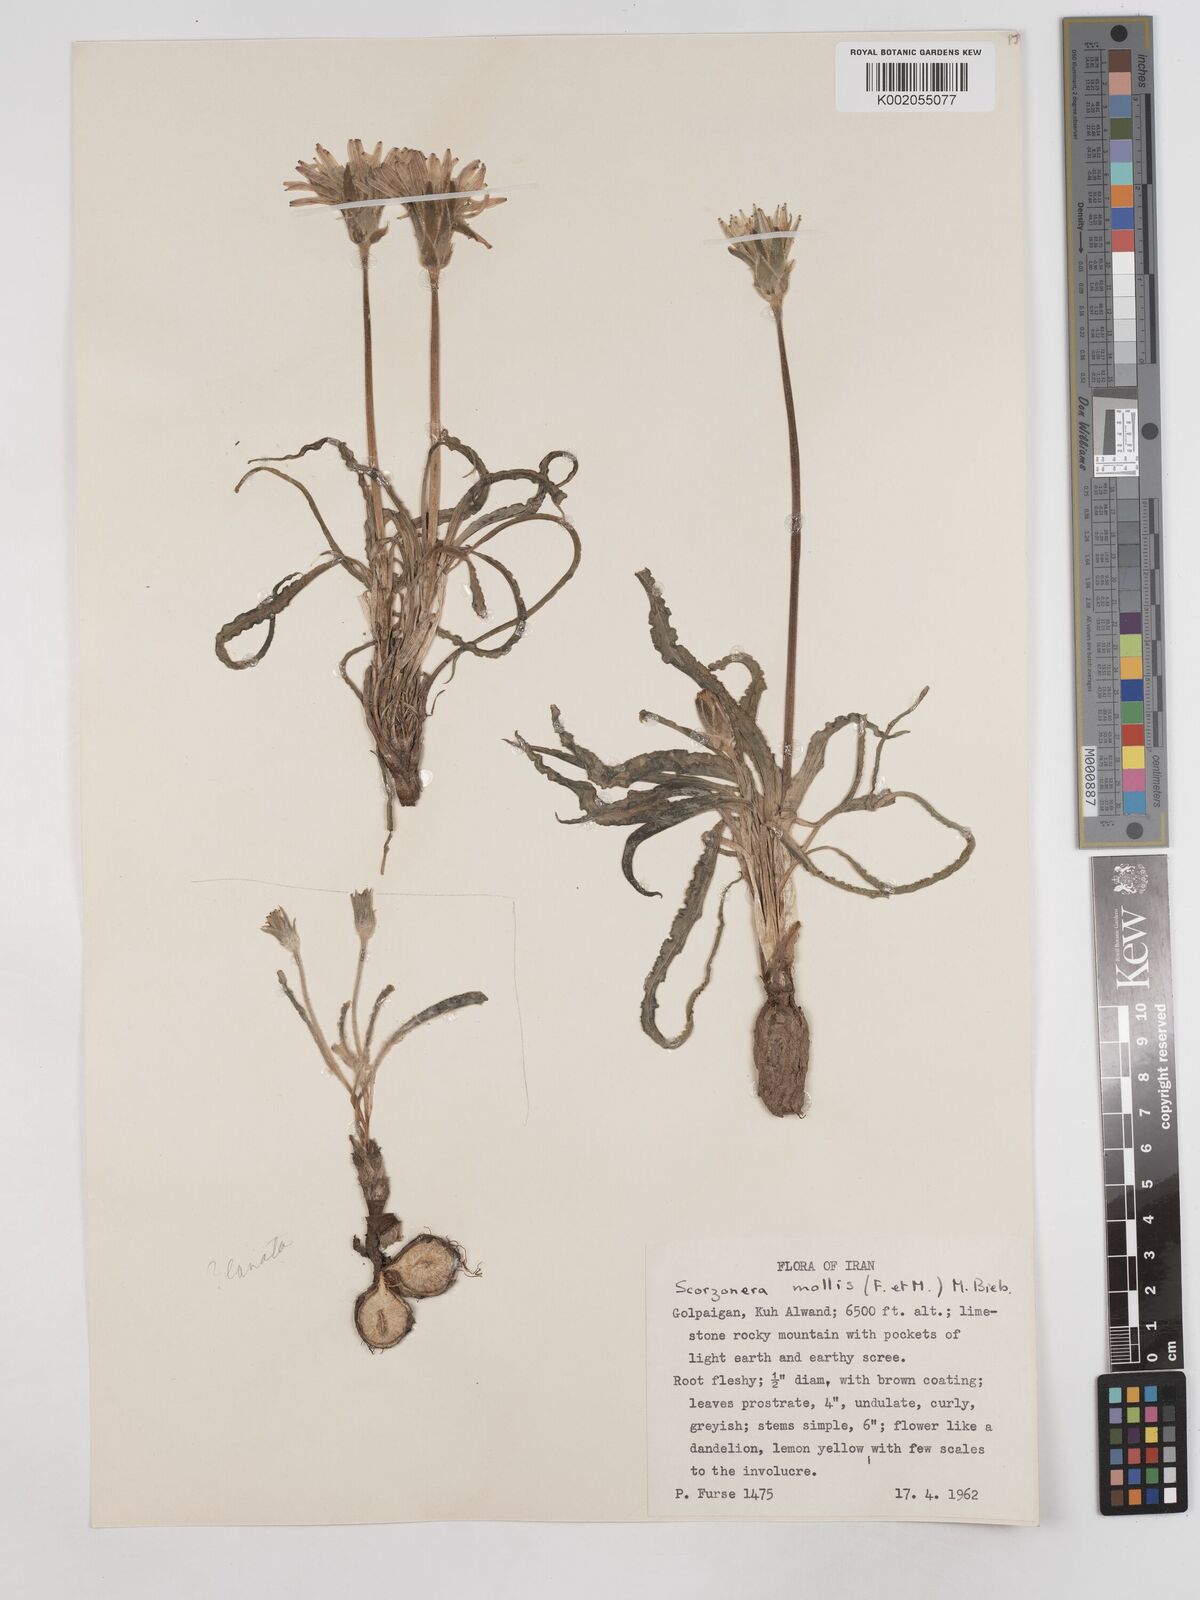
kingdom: Plantae
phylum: Tracheophyta
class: Magnoliopsida
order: Asterales
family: Asteraceae
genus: Candollea
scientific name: Candollea mollis
